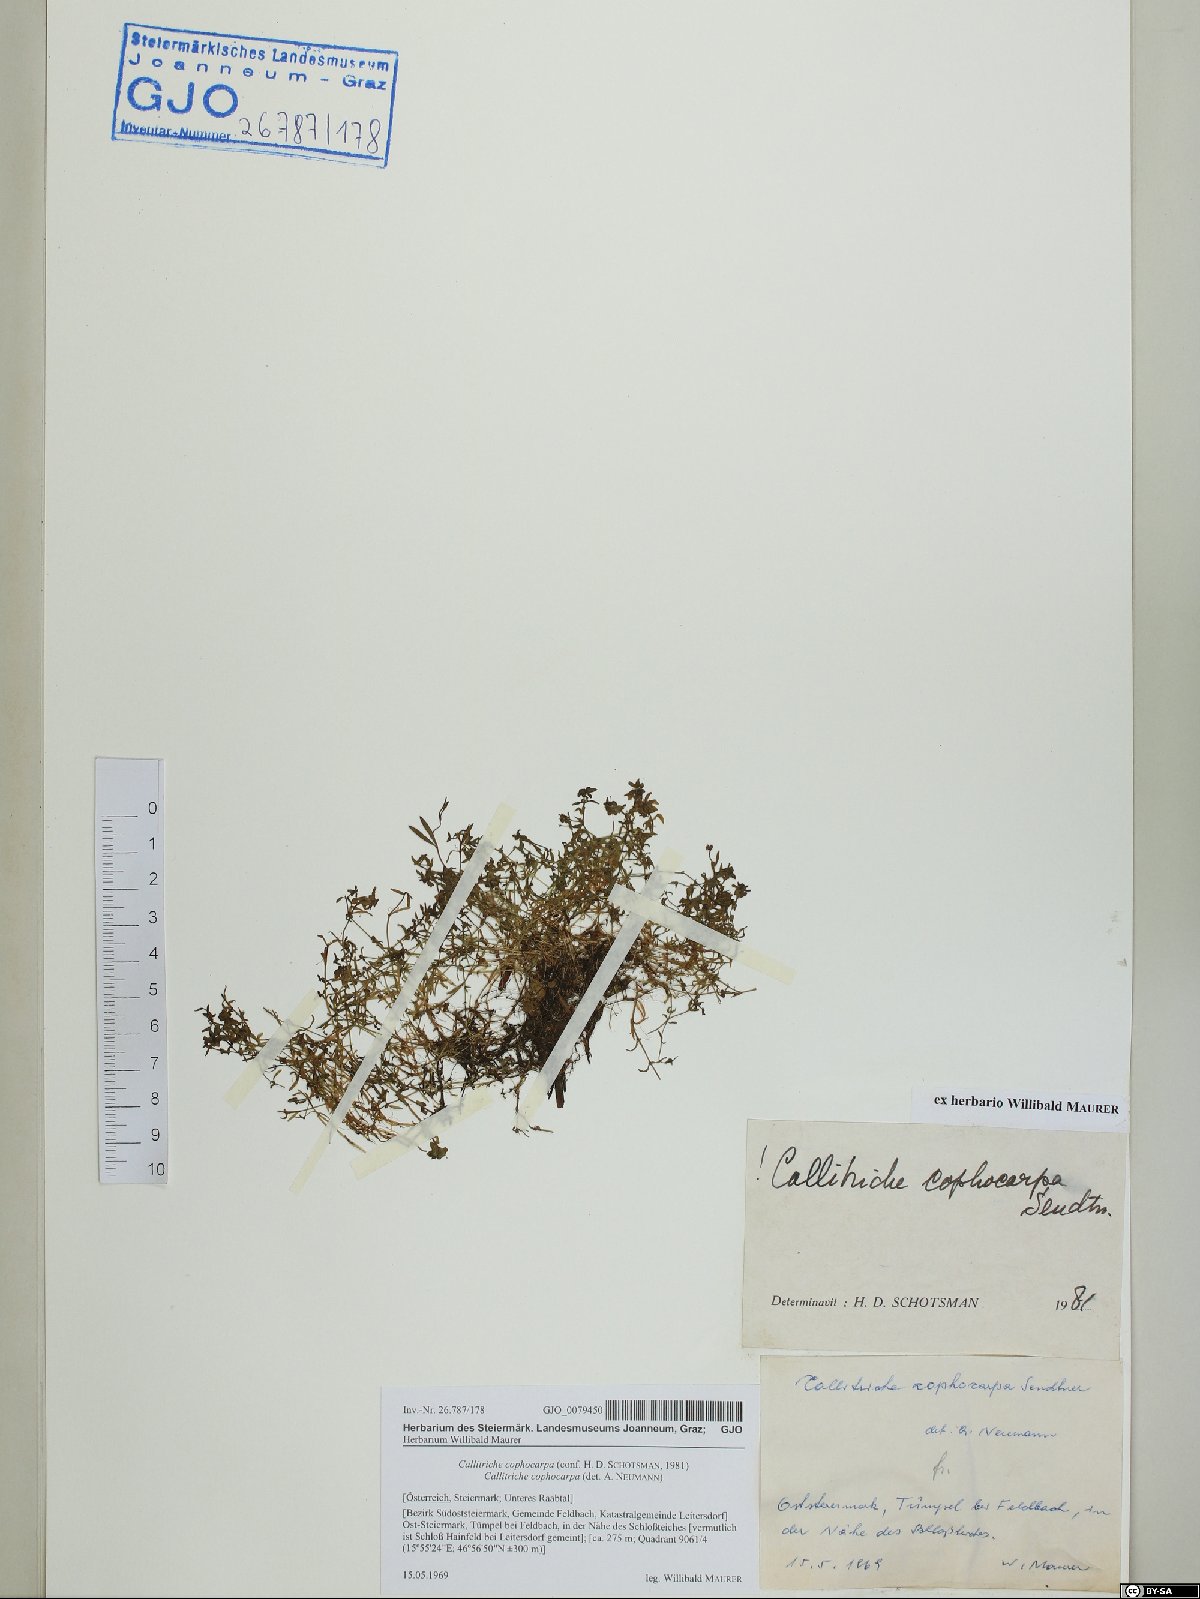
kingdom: Plantae
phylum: Tracheophyta
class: Magnoliopsida
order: Lamiales
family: Plantaginaceae
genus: Callitriche
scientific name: Callitriche cophocarpa
